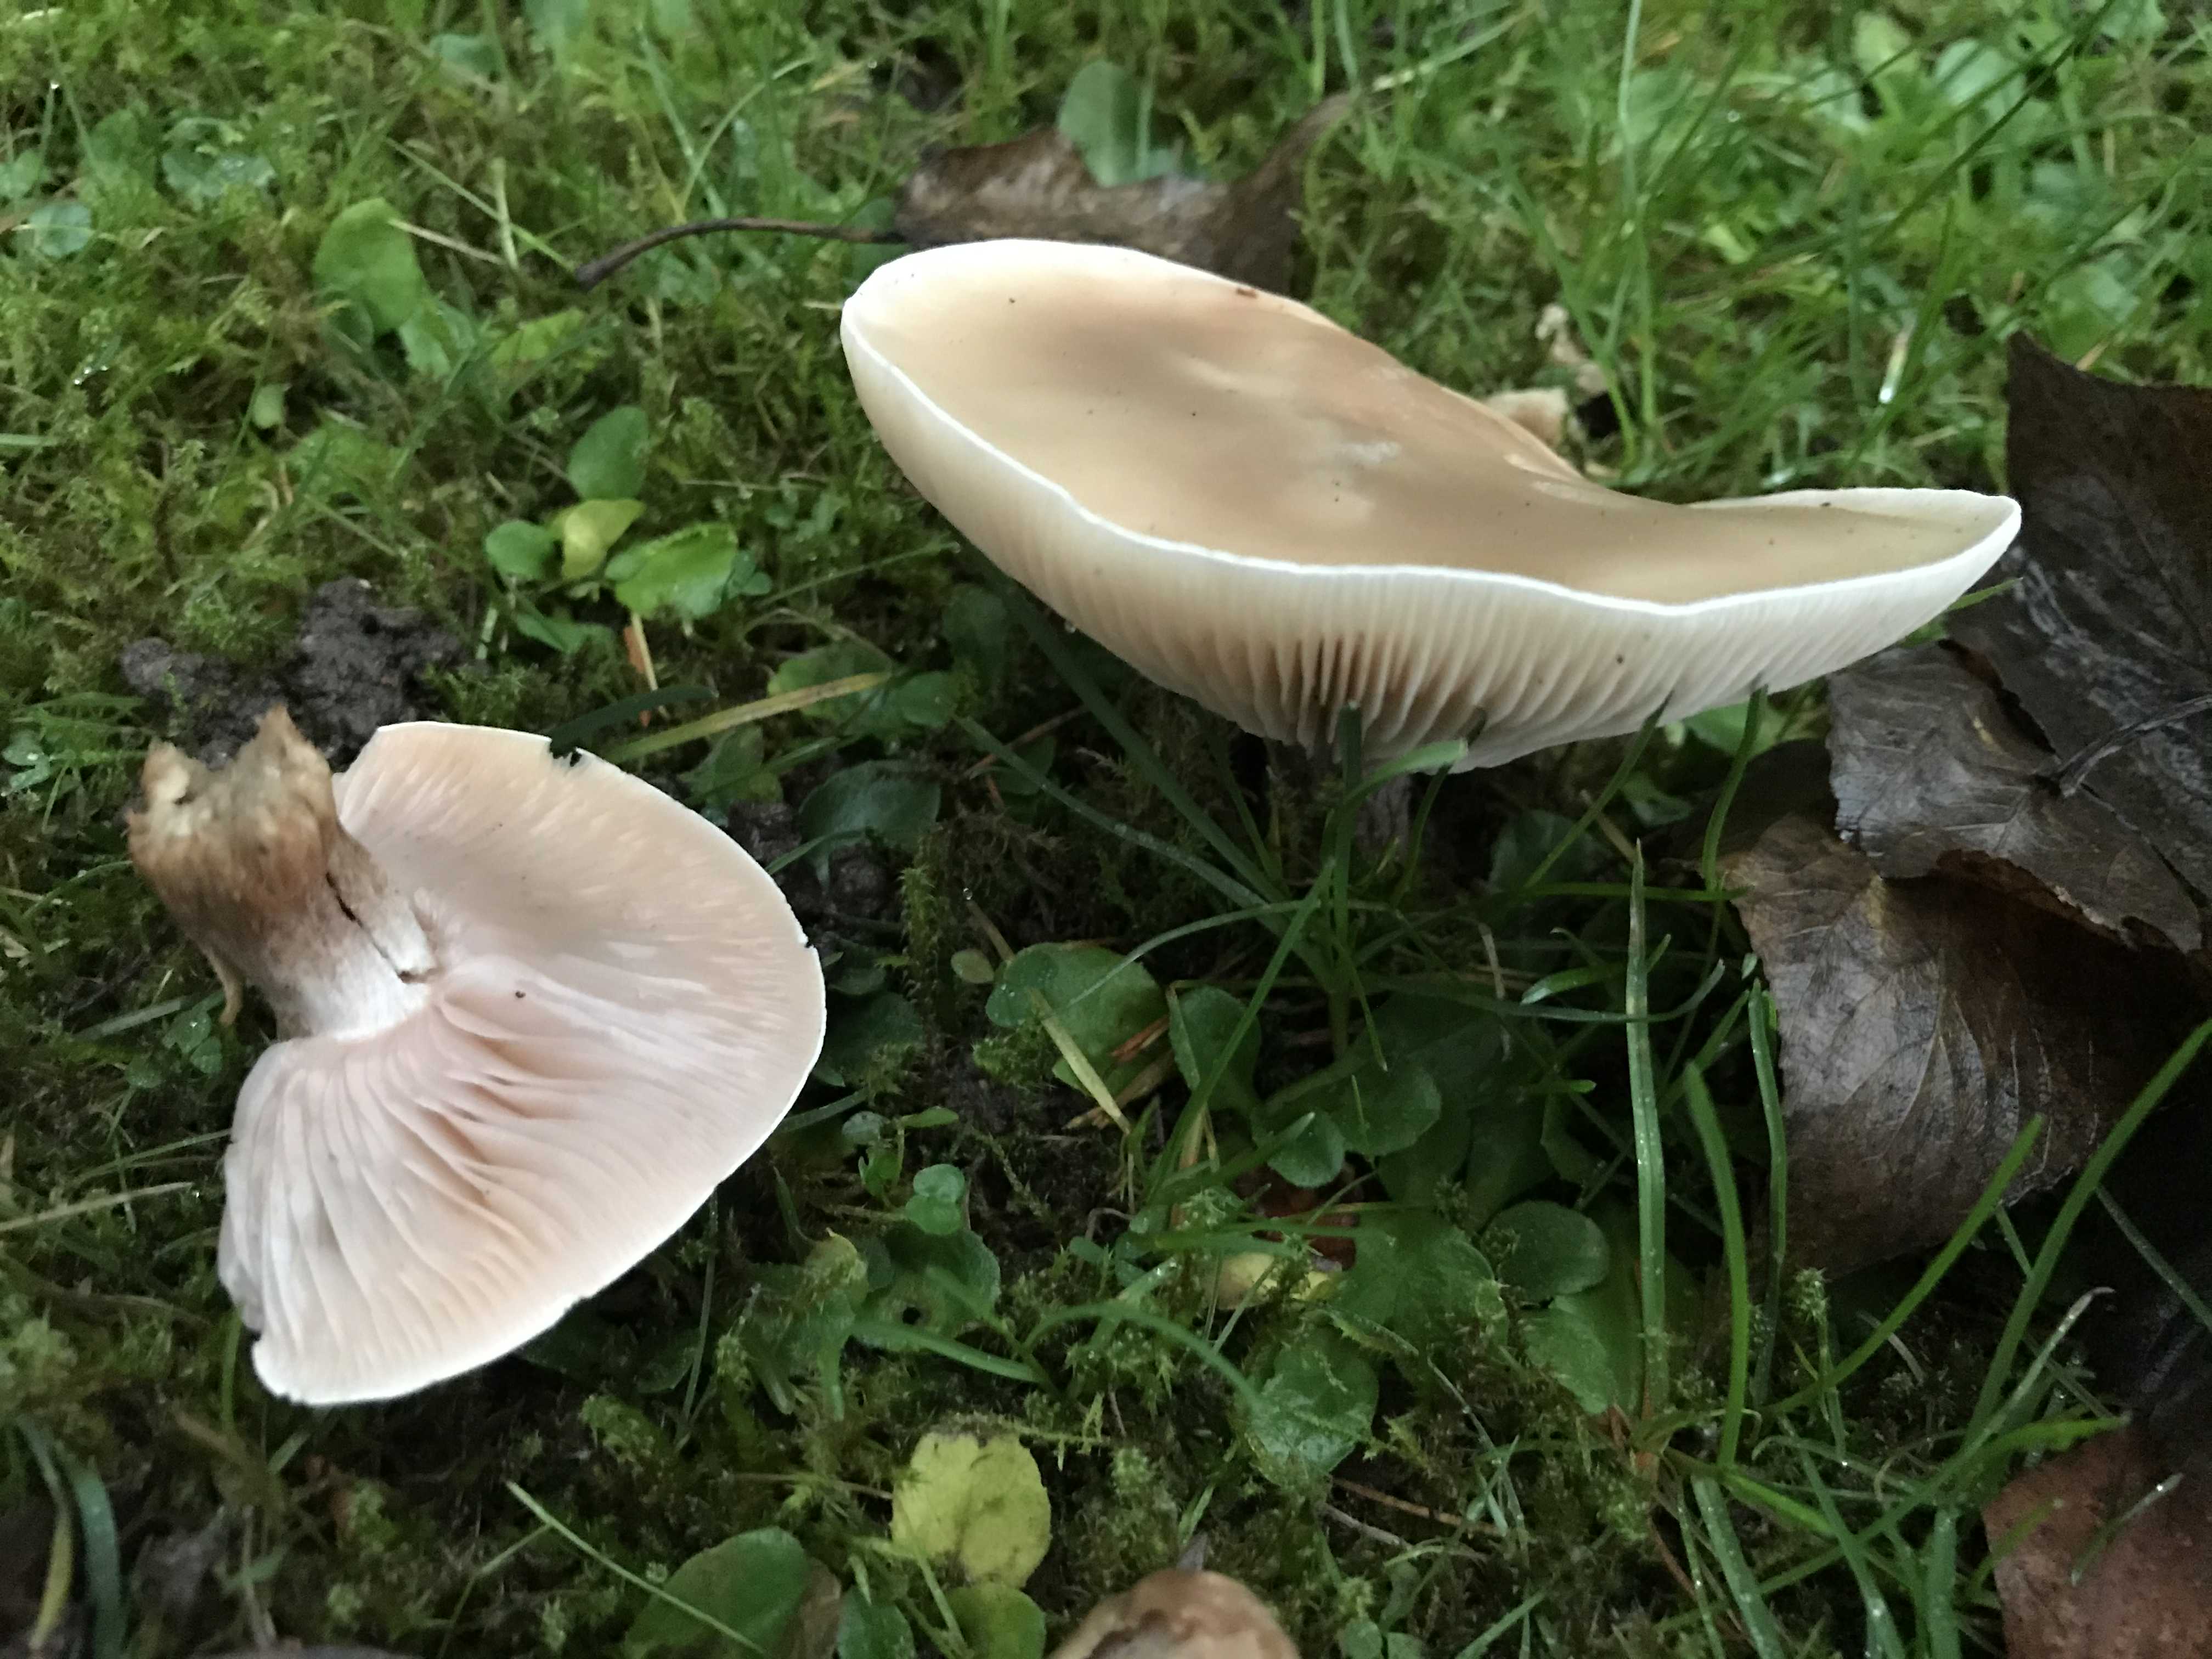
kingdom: Fungi
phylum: Basidiomycota
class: Agaricomycetes
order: Agaricales
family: Tricholomataceae
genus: Lepista
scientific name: Lepista personata
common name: bleg hekseringshat
